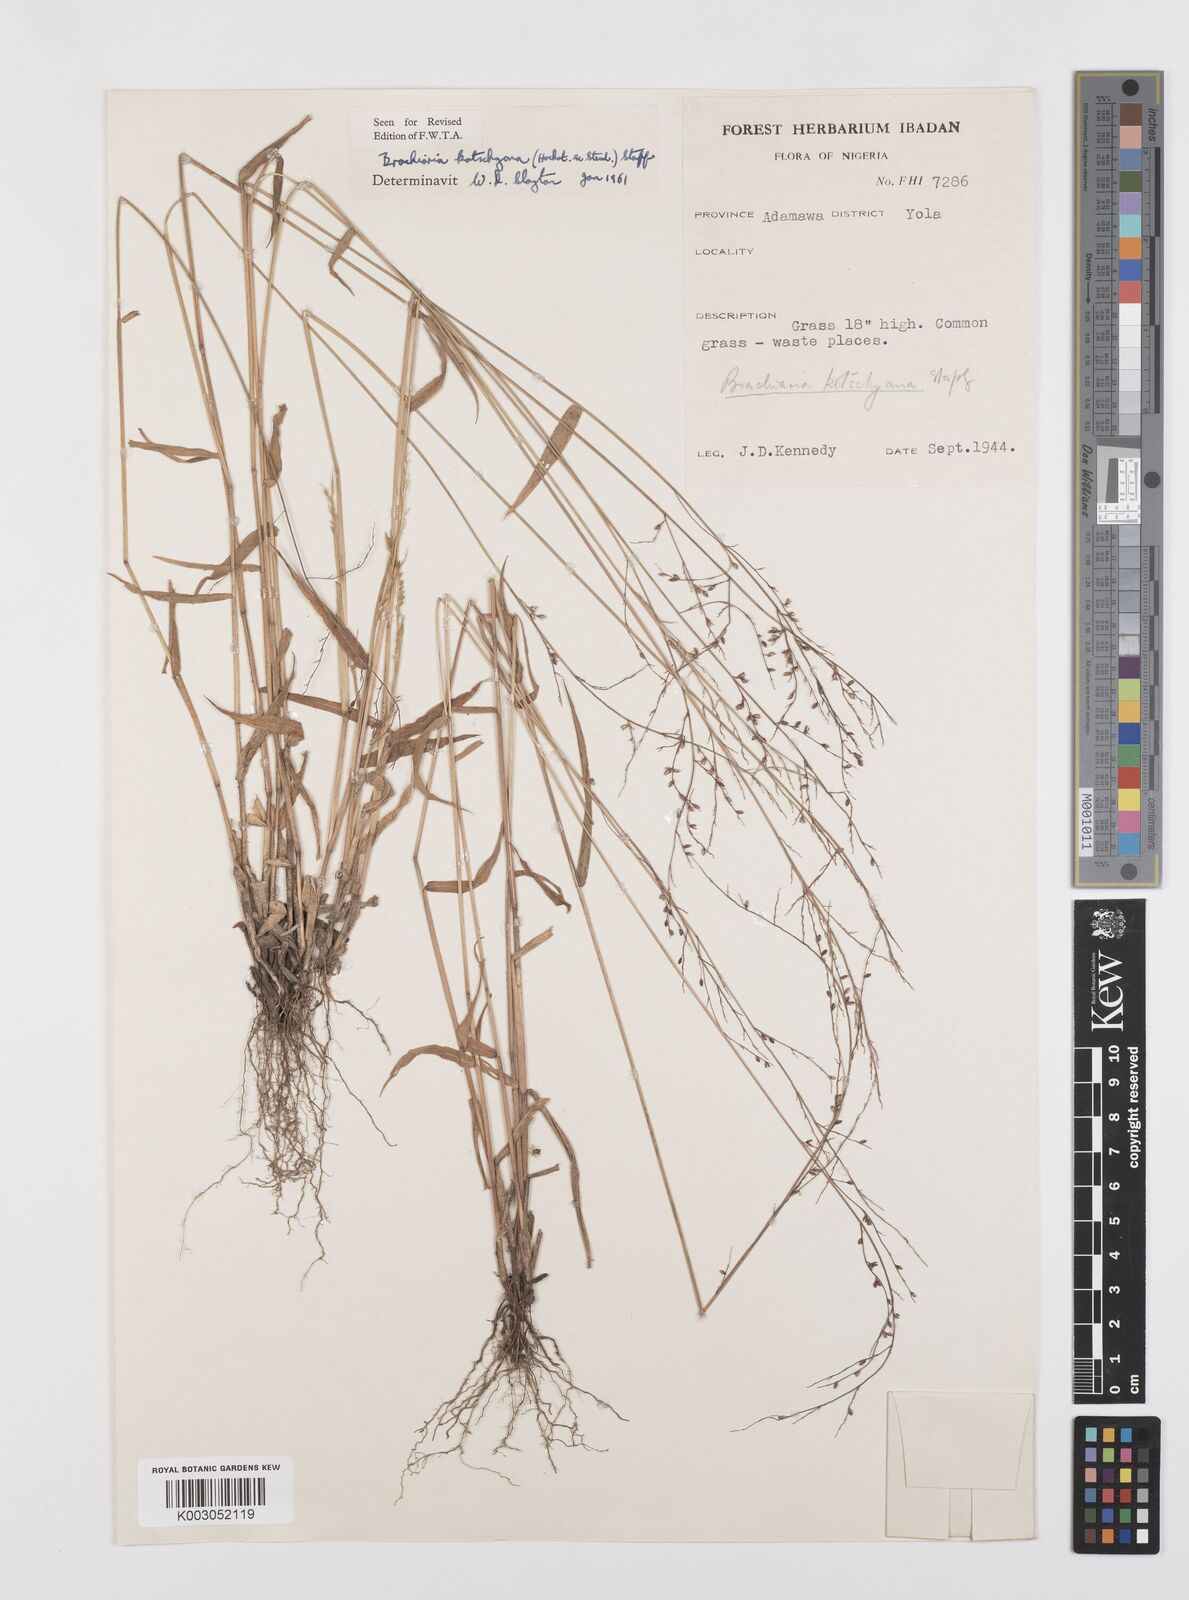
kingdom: Plantae
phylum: Tracheophyta
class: Liliopsida
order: Poales
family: Poaceae
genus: Urochloa
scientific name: Urochloa comata
